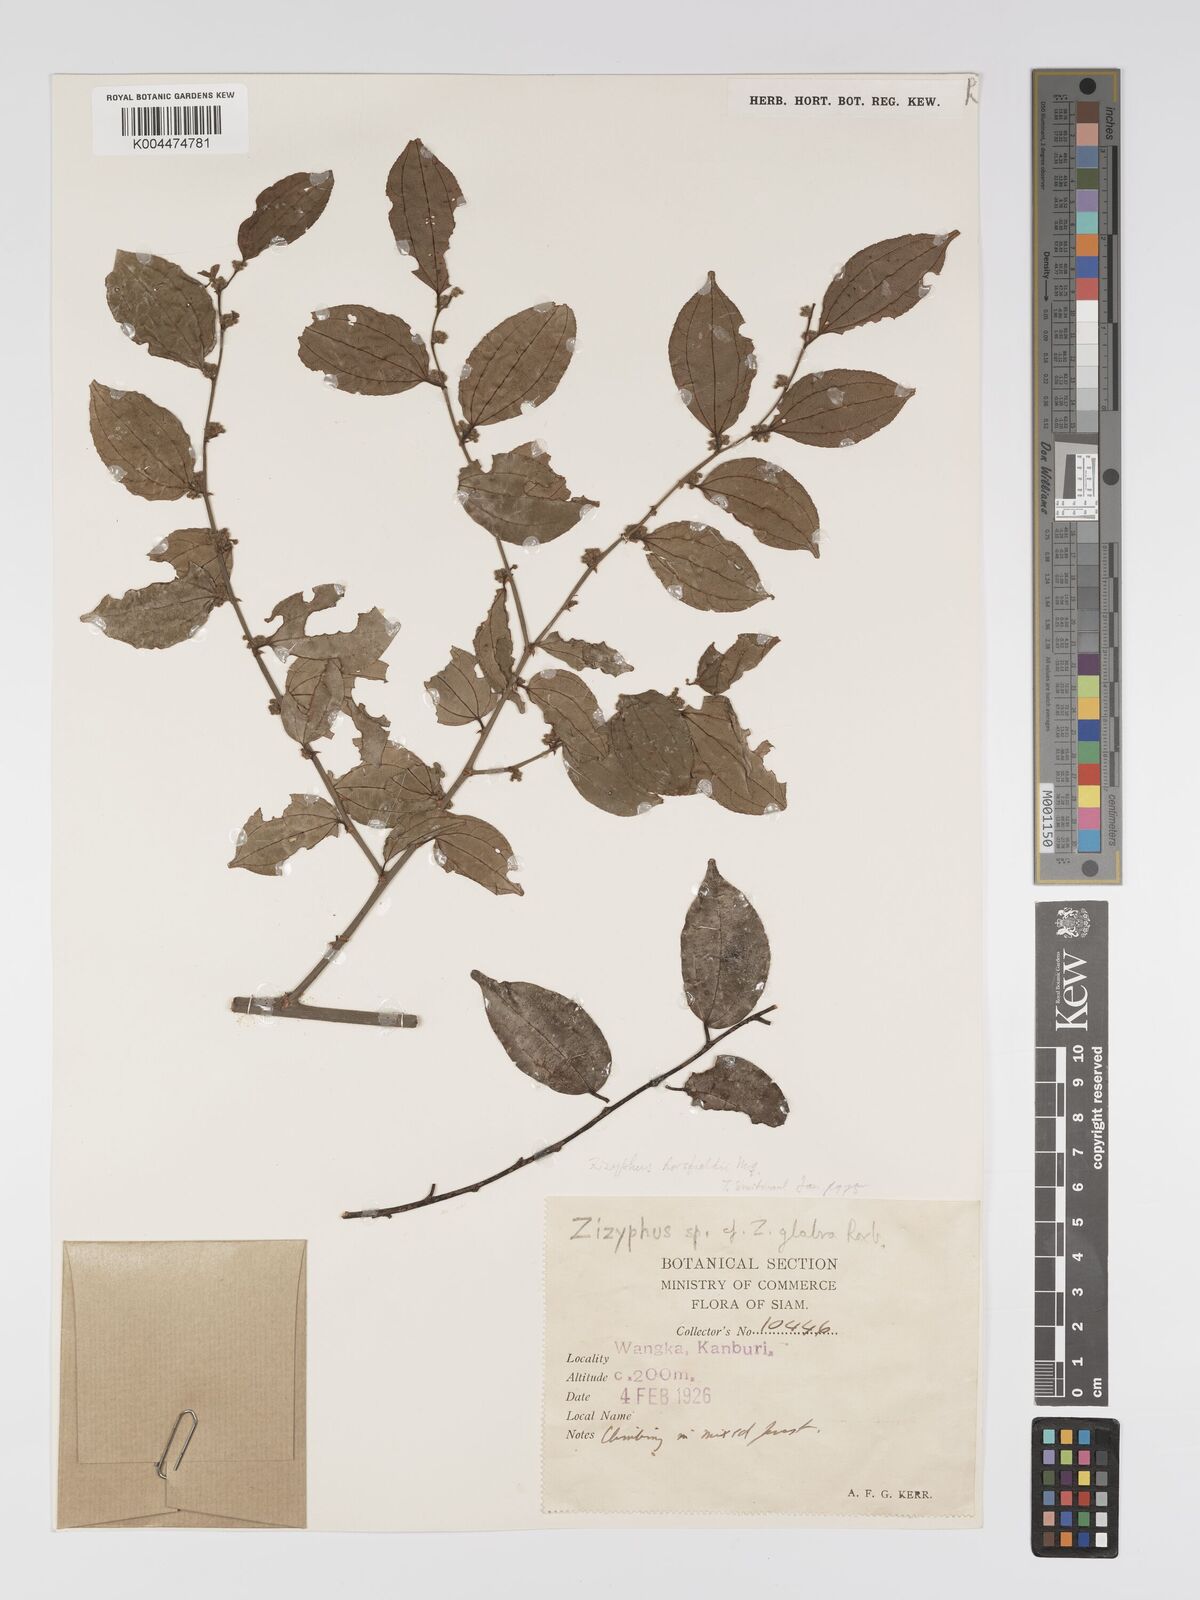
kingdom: Plantae
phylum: Tracheophyta
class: Magnoliopsida
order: Rosales
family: Rhamnaceae
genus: Ziziphus
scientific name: Ziziphus rugosa
